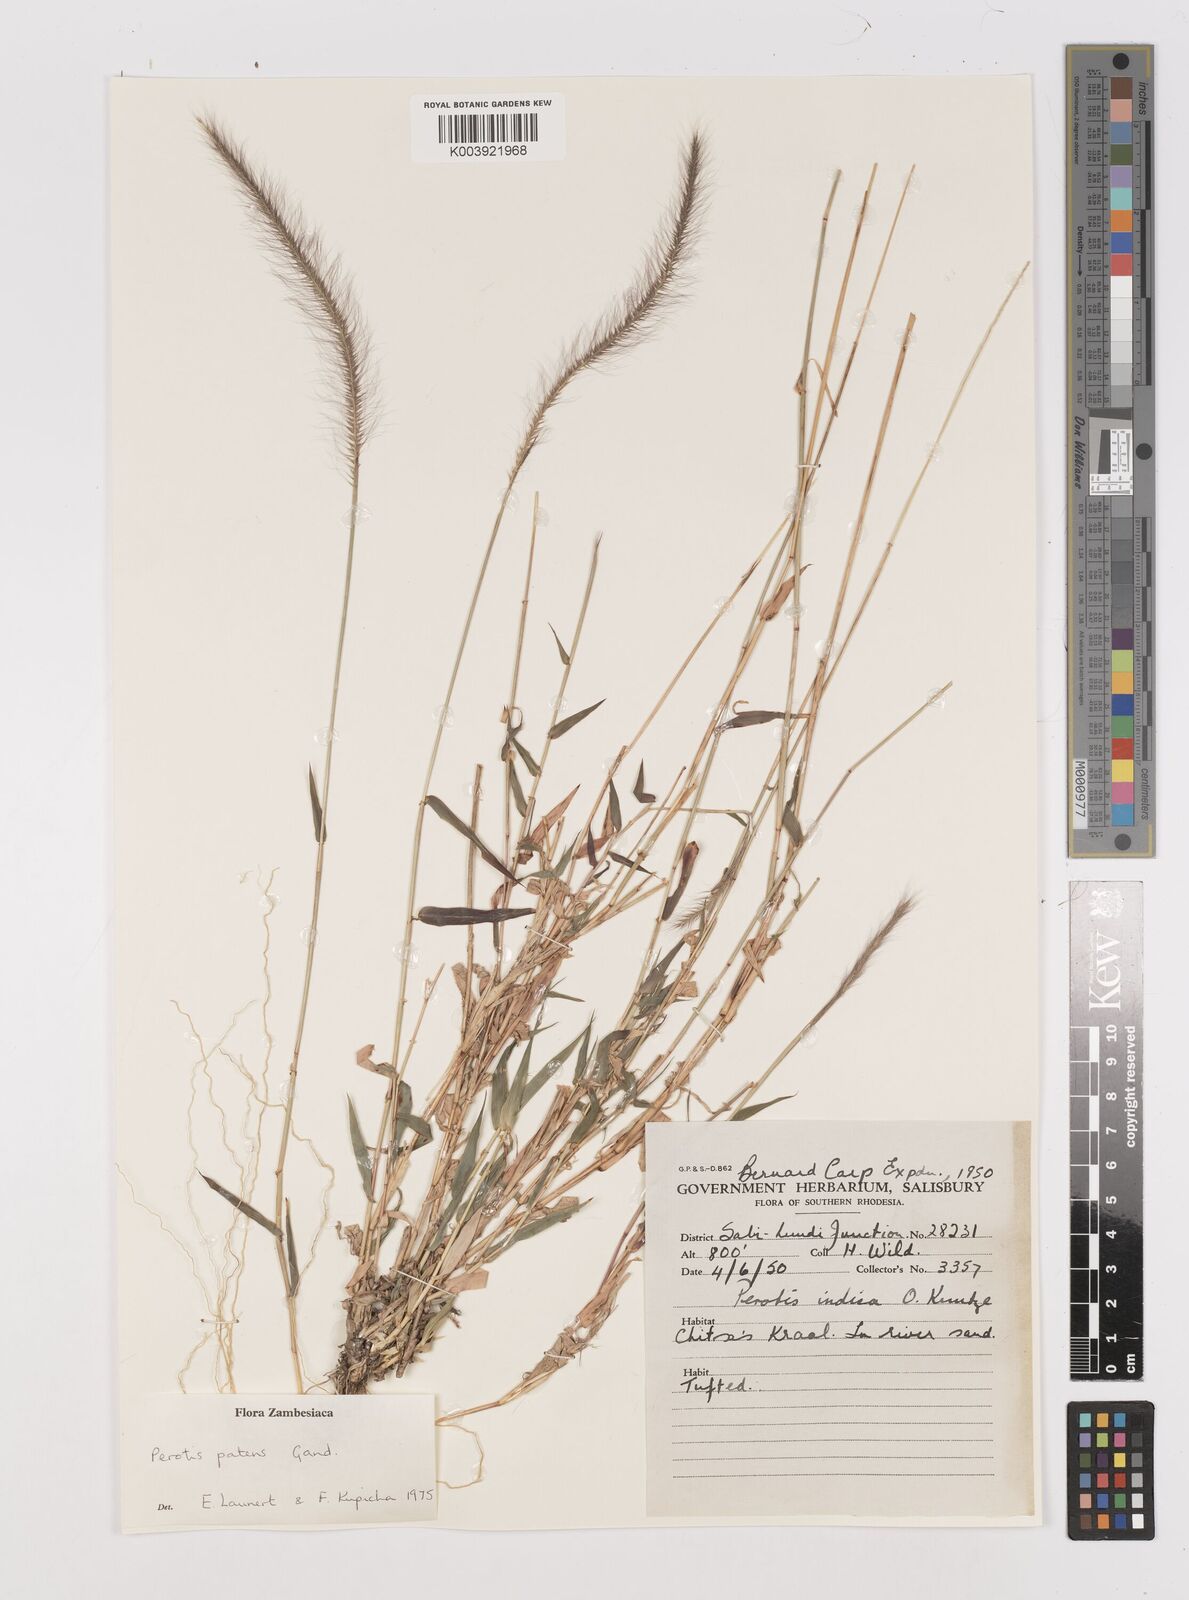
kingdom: Plantae
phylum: Tracheophyta
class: Liliopsida
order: Poales
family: Poaceae
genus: Perotis
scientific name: Perotis patens
